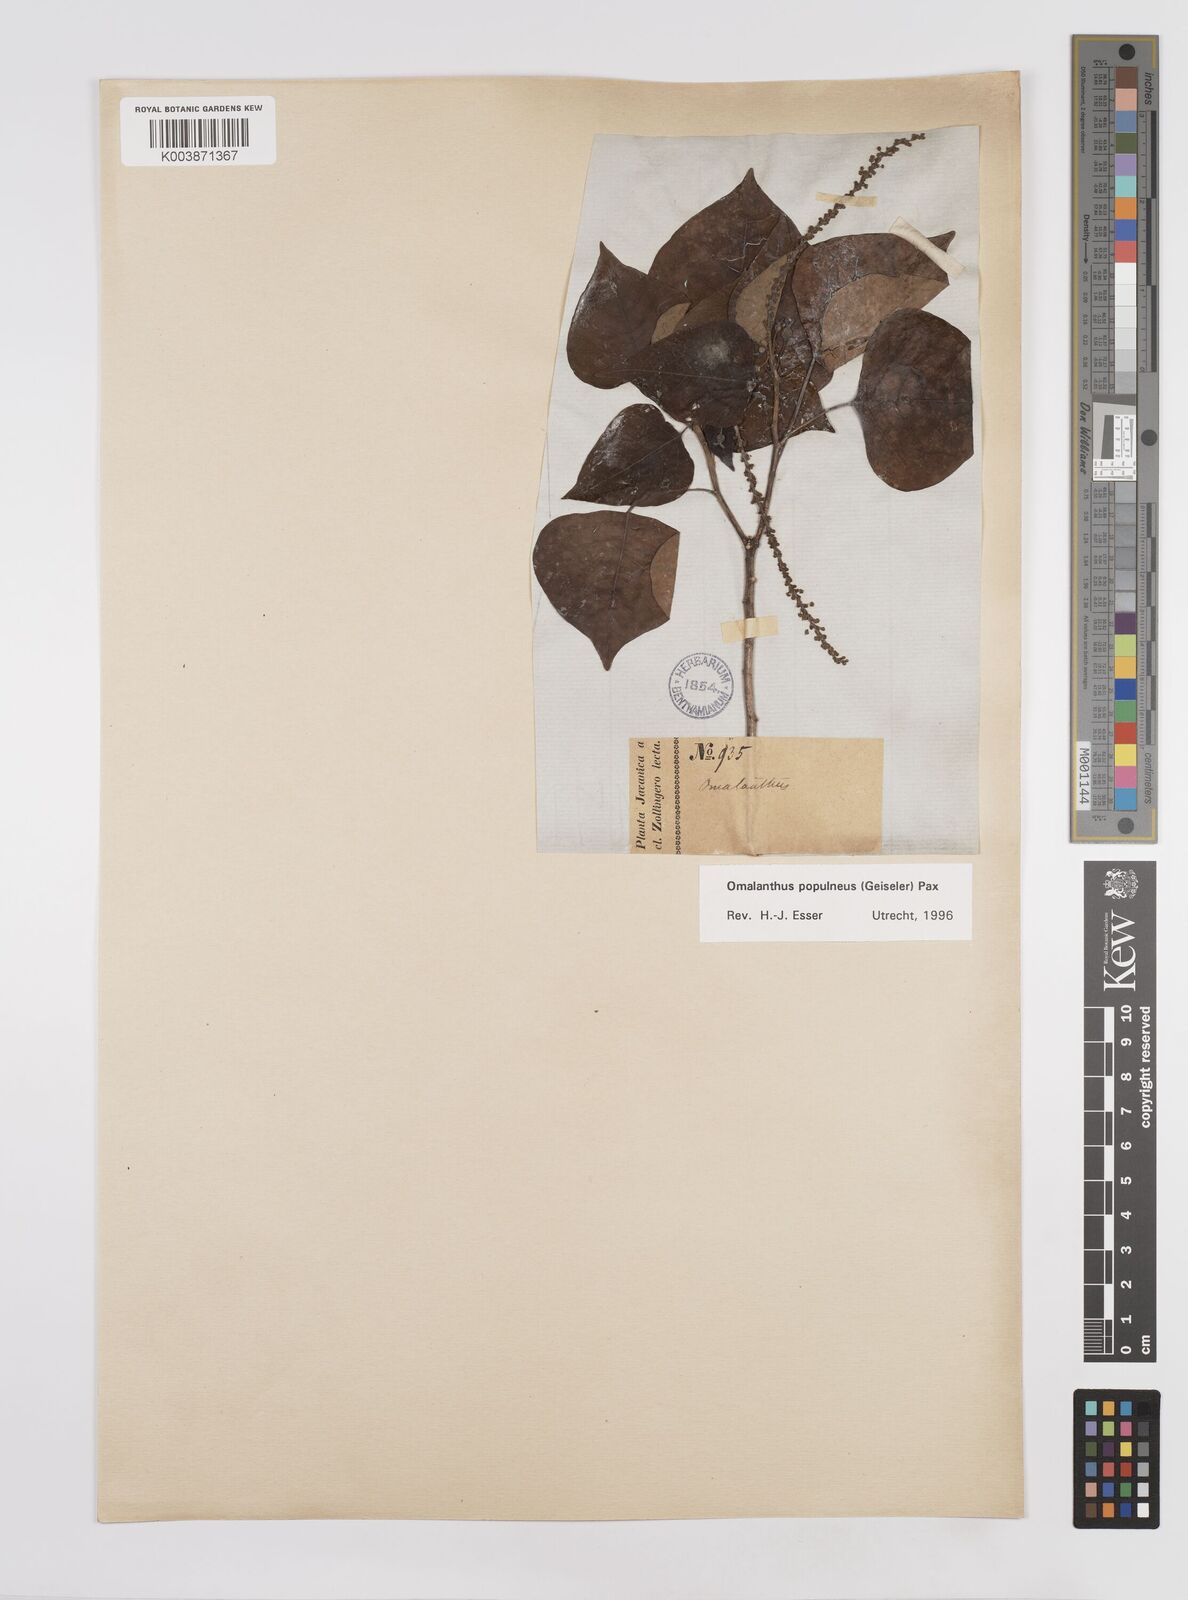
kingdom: Plantae
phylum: Tracheophyta
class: Magnoliopsida
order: Malpighiales
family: Euphorbiaceae
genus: Homalanthus
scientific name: Homalanthus populneus
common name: Spurge
